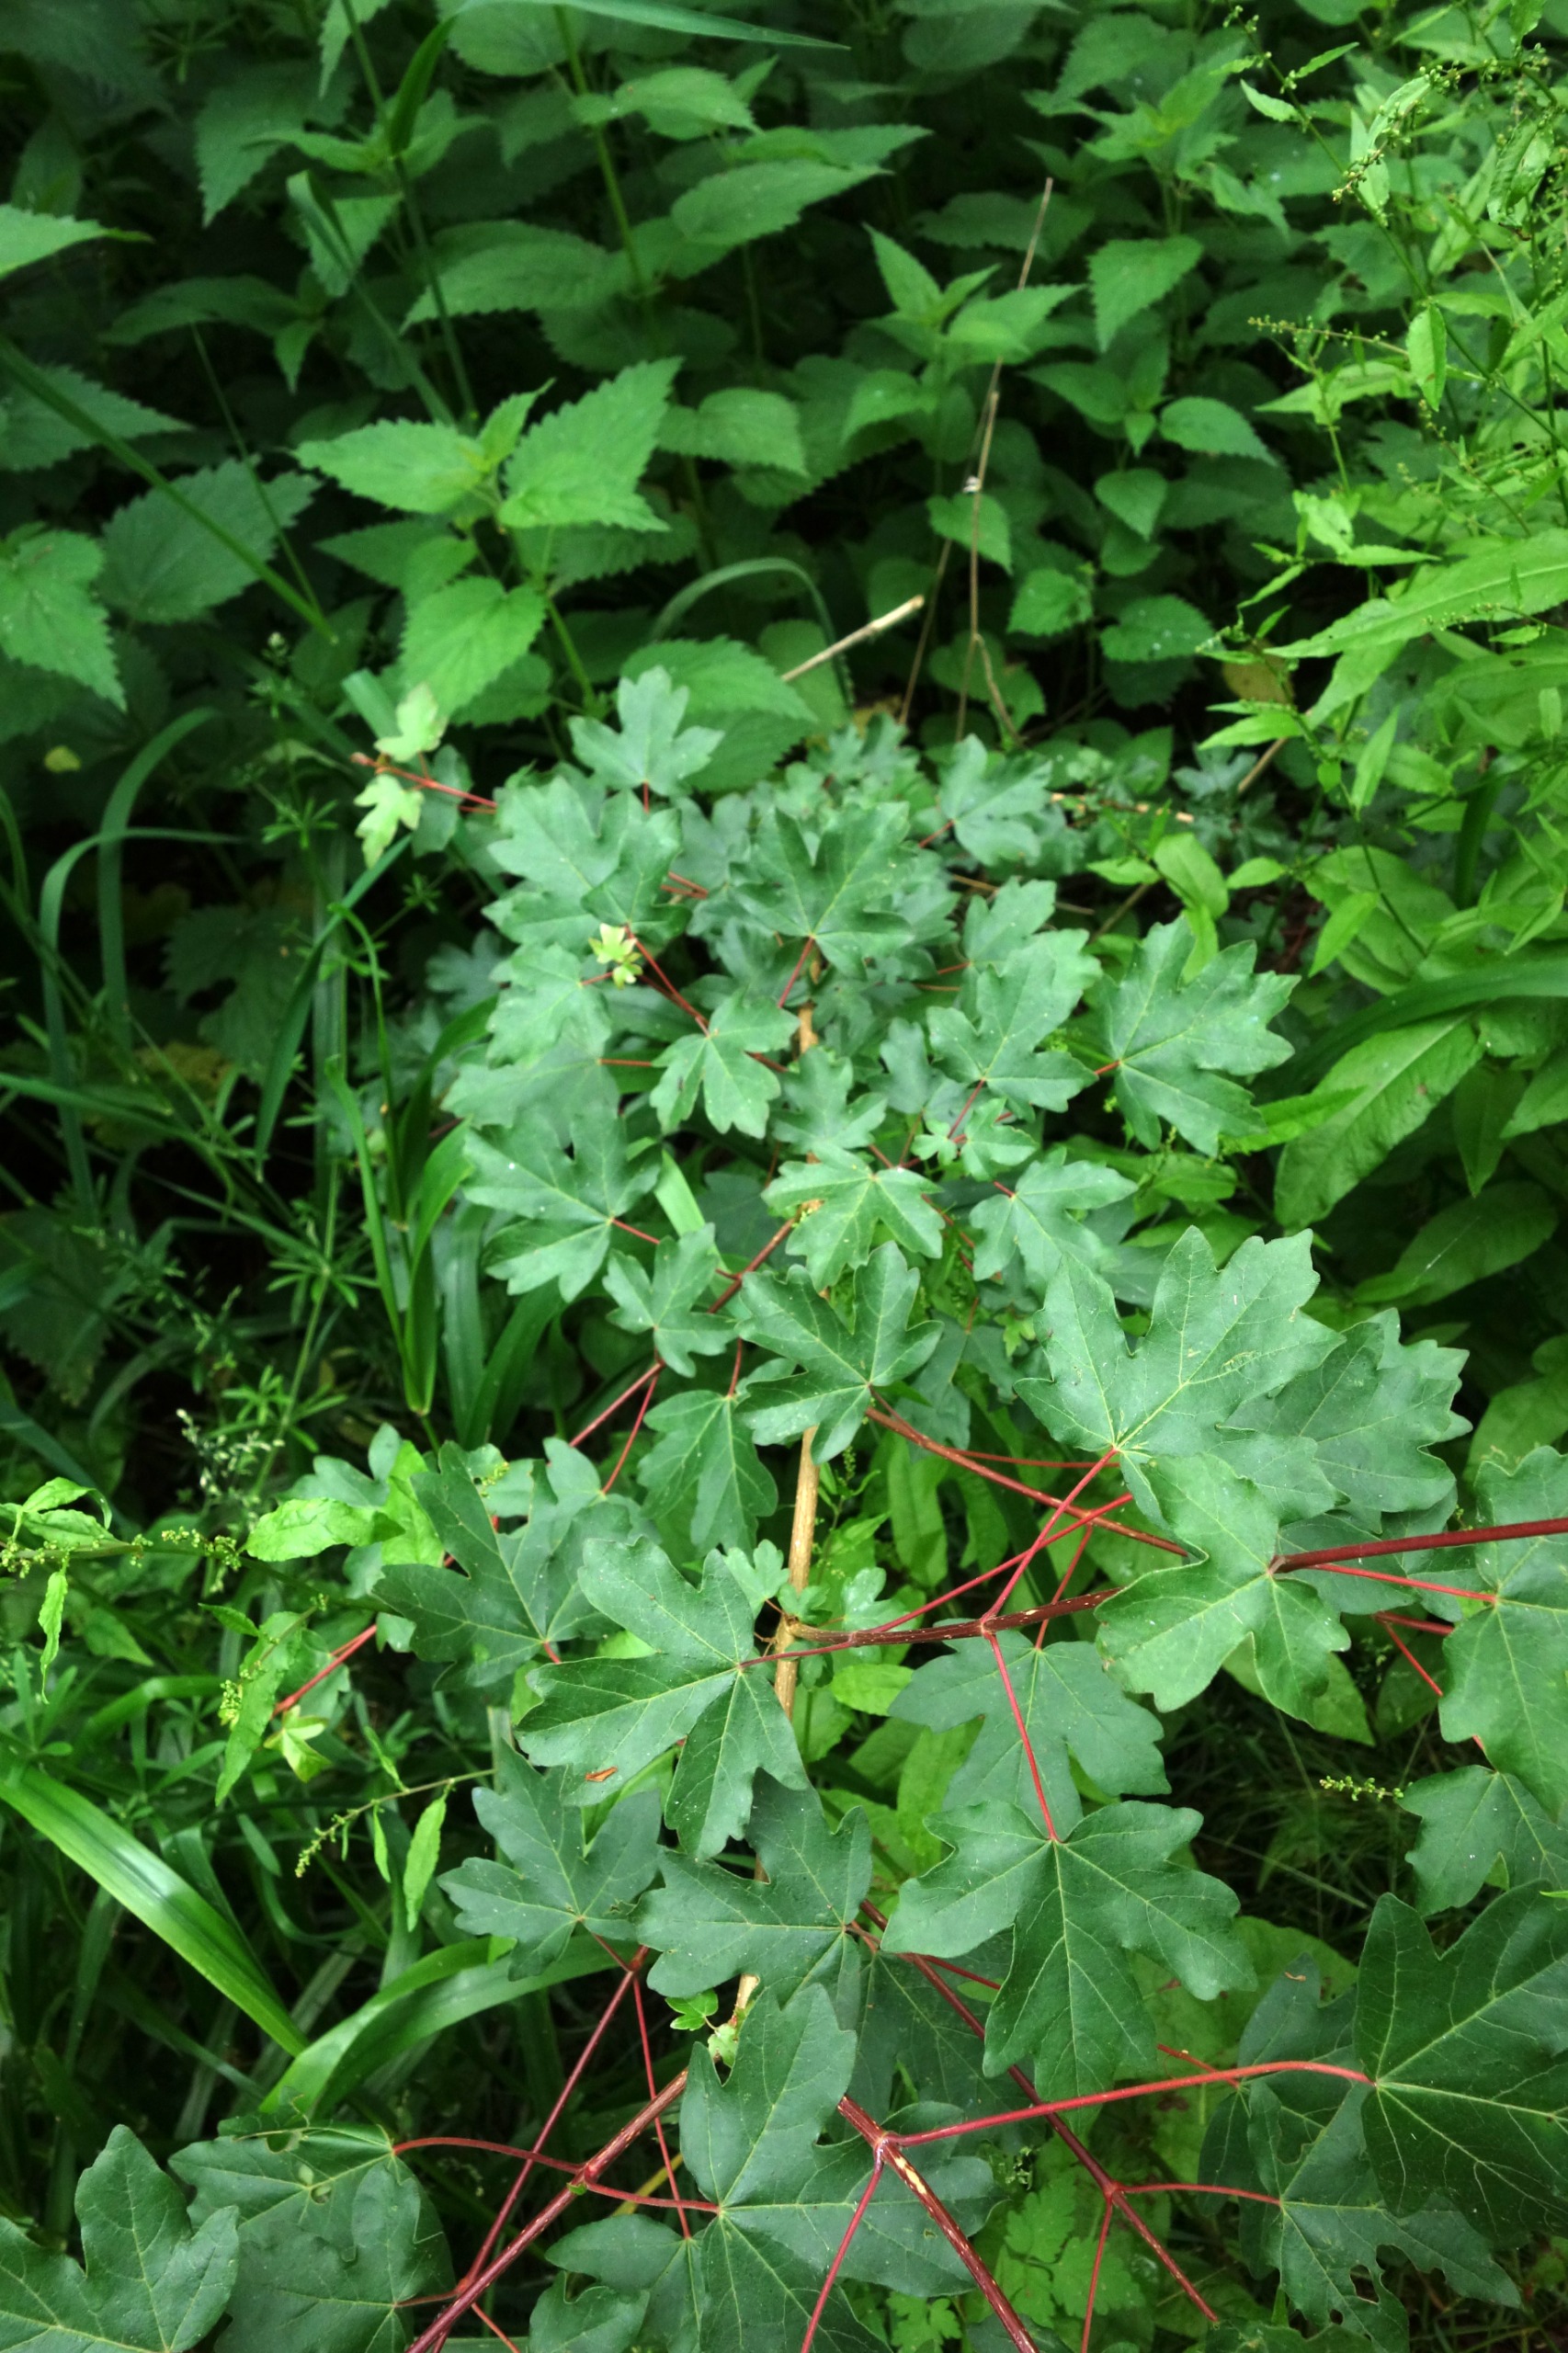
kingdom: Plantae
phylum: Tracheophyta
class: Magnoliopsida
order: Sapindales
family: Sapindaceae
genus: Acer
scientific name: Acer campestre
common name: Navr
